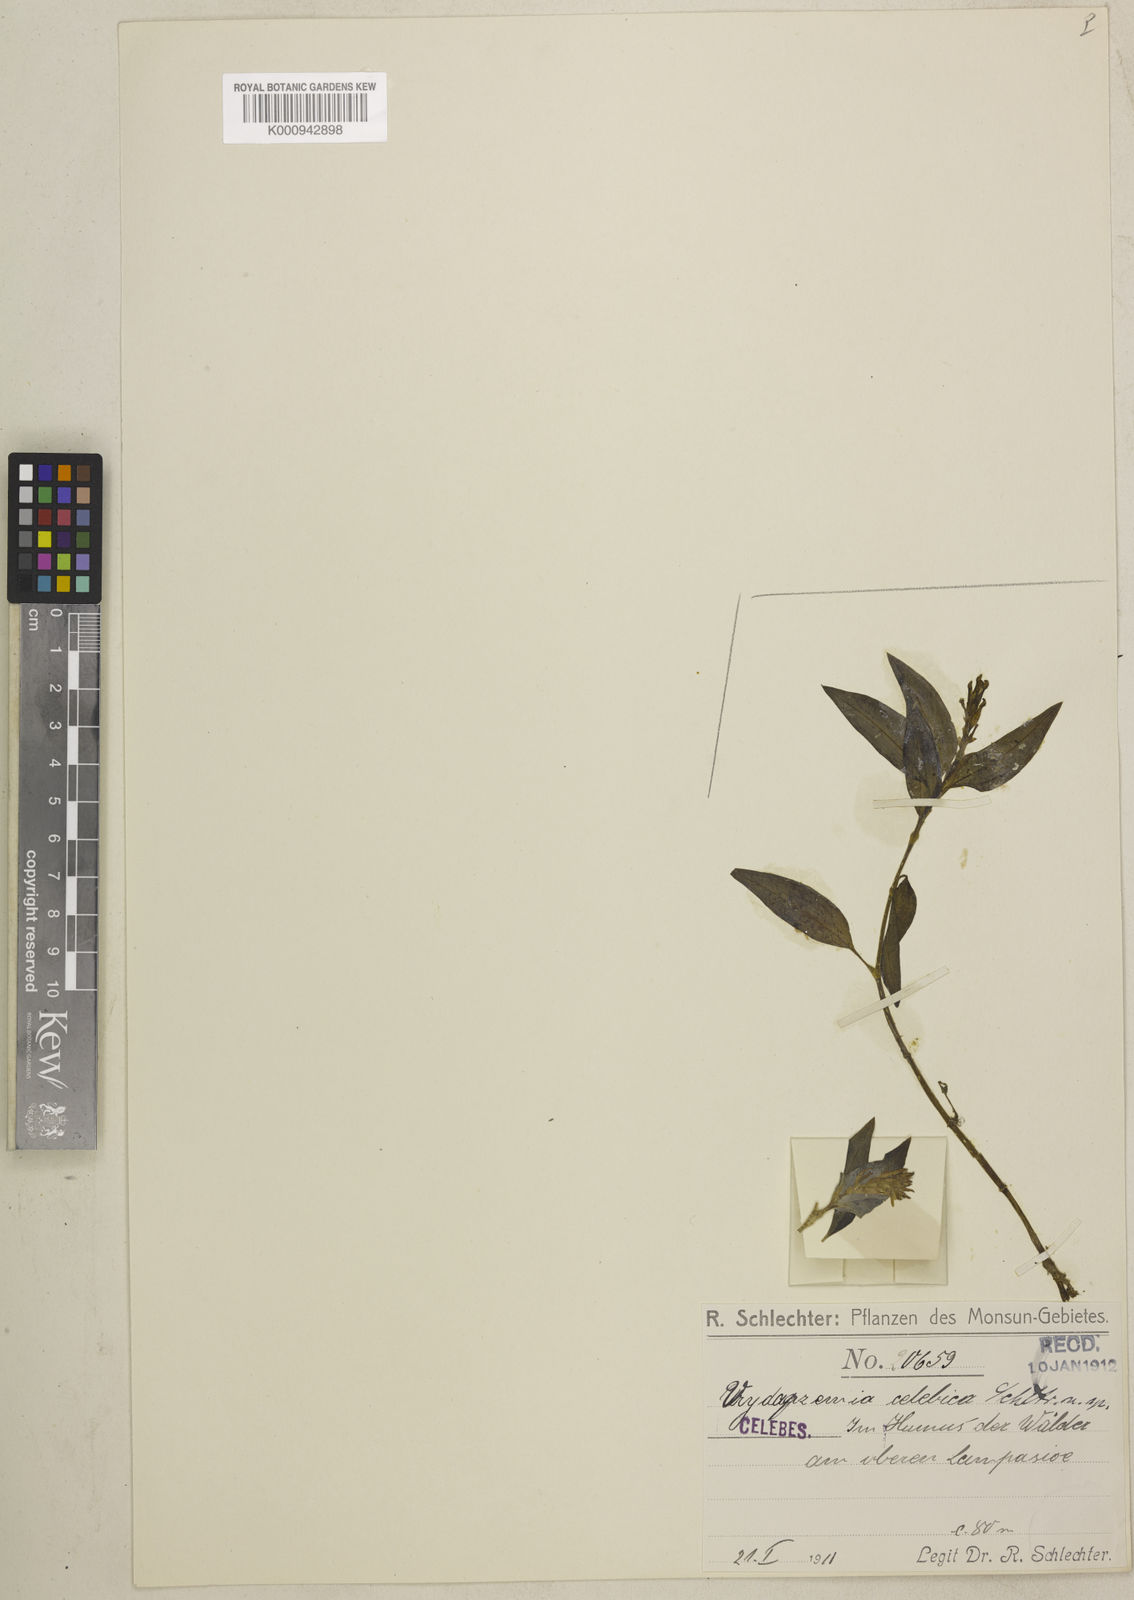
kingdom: Plantae
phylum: Tracheophyta
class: Liliopsida
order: Asparagales
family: Orchidaceae
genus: Vrydagzynea
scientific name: Vrydagzynea celebica
